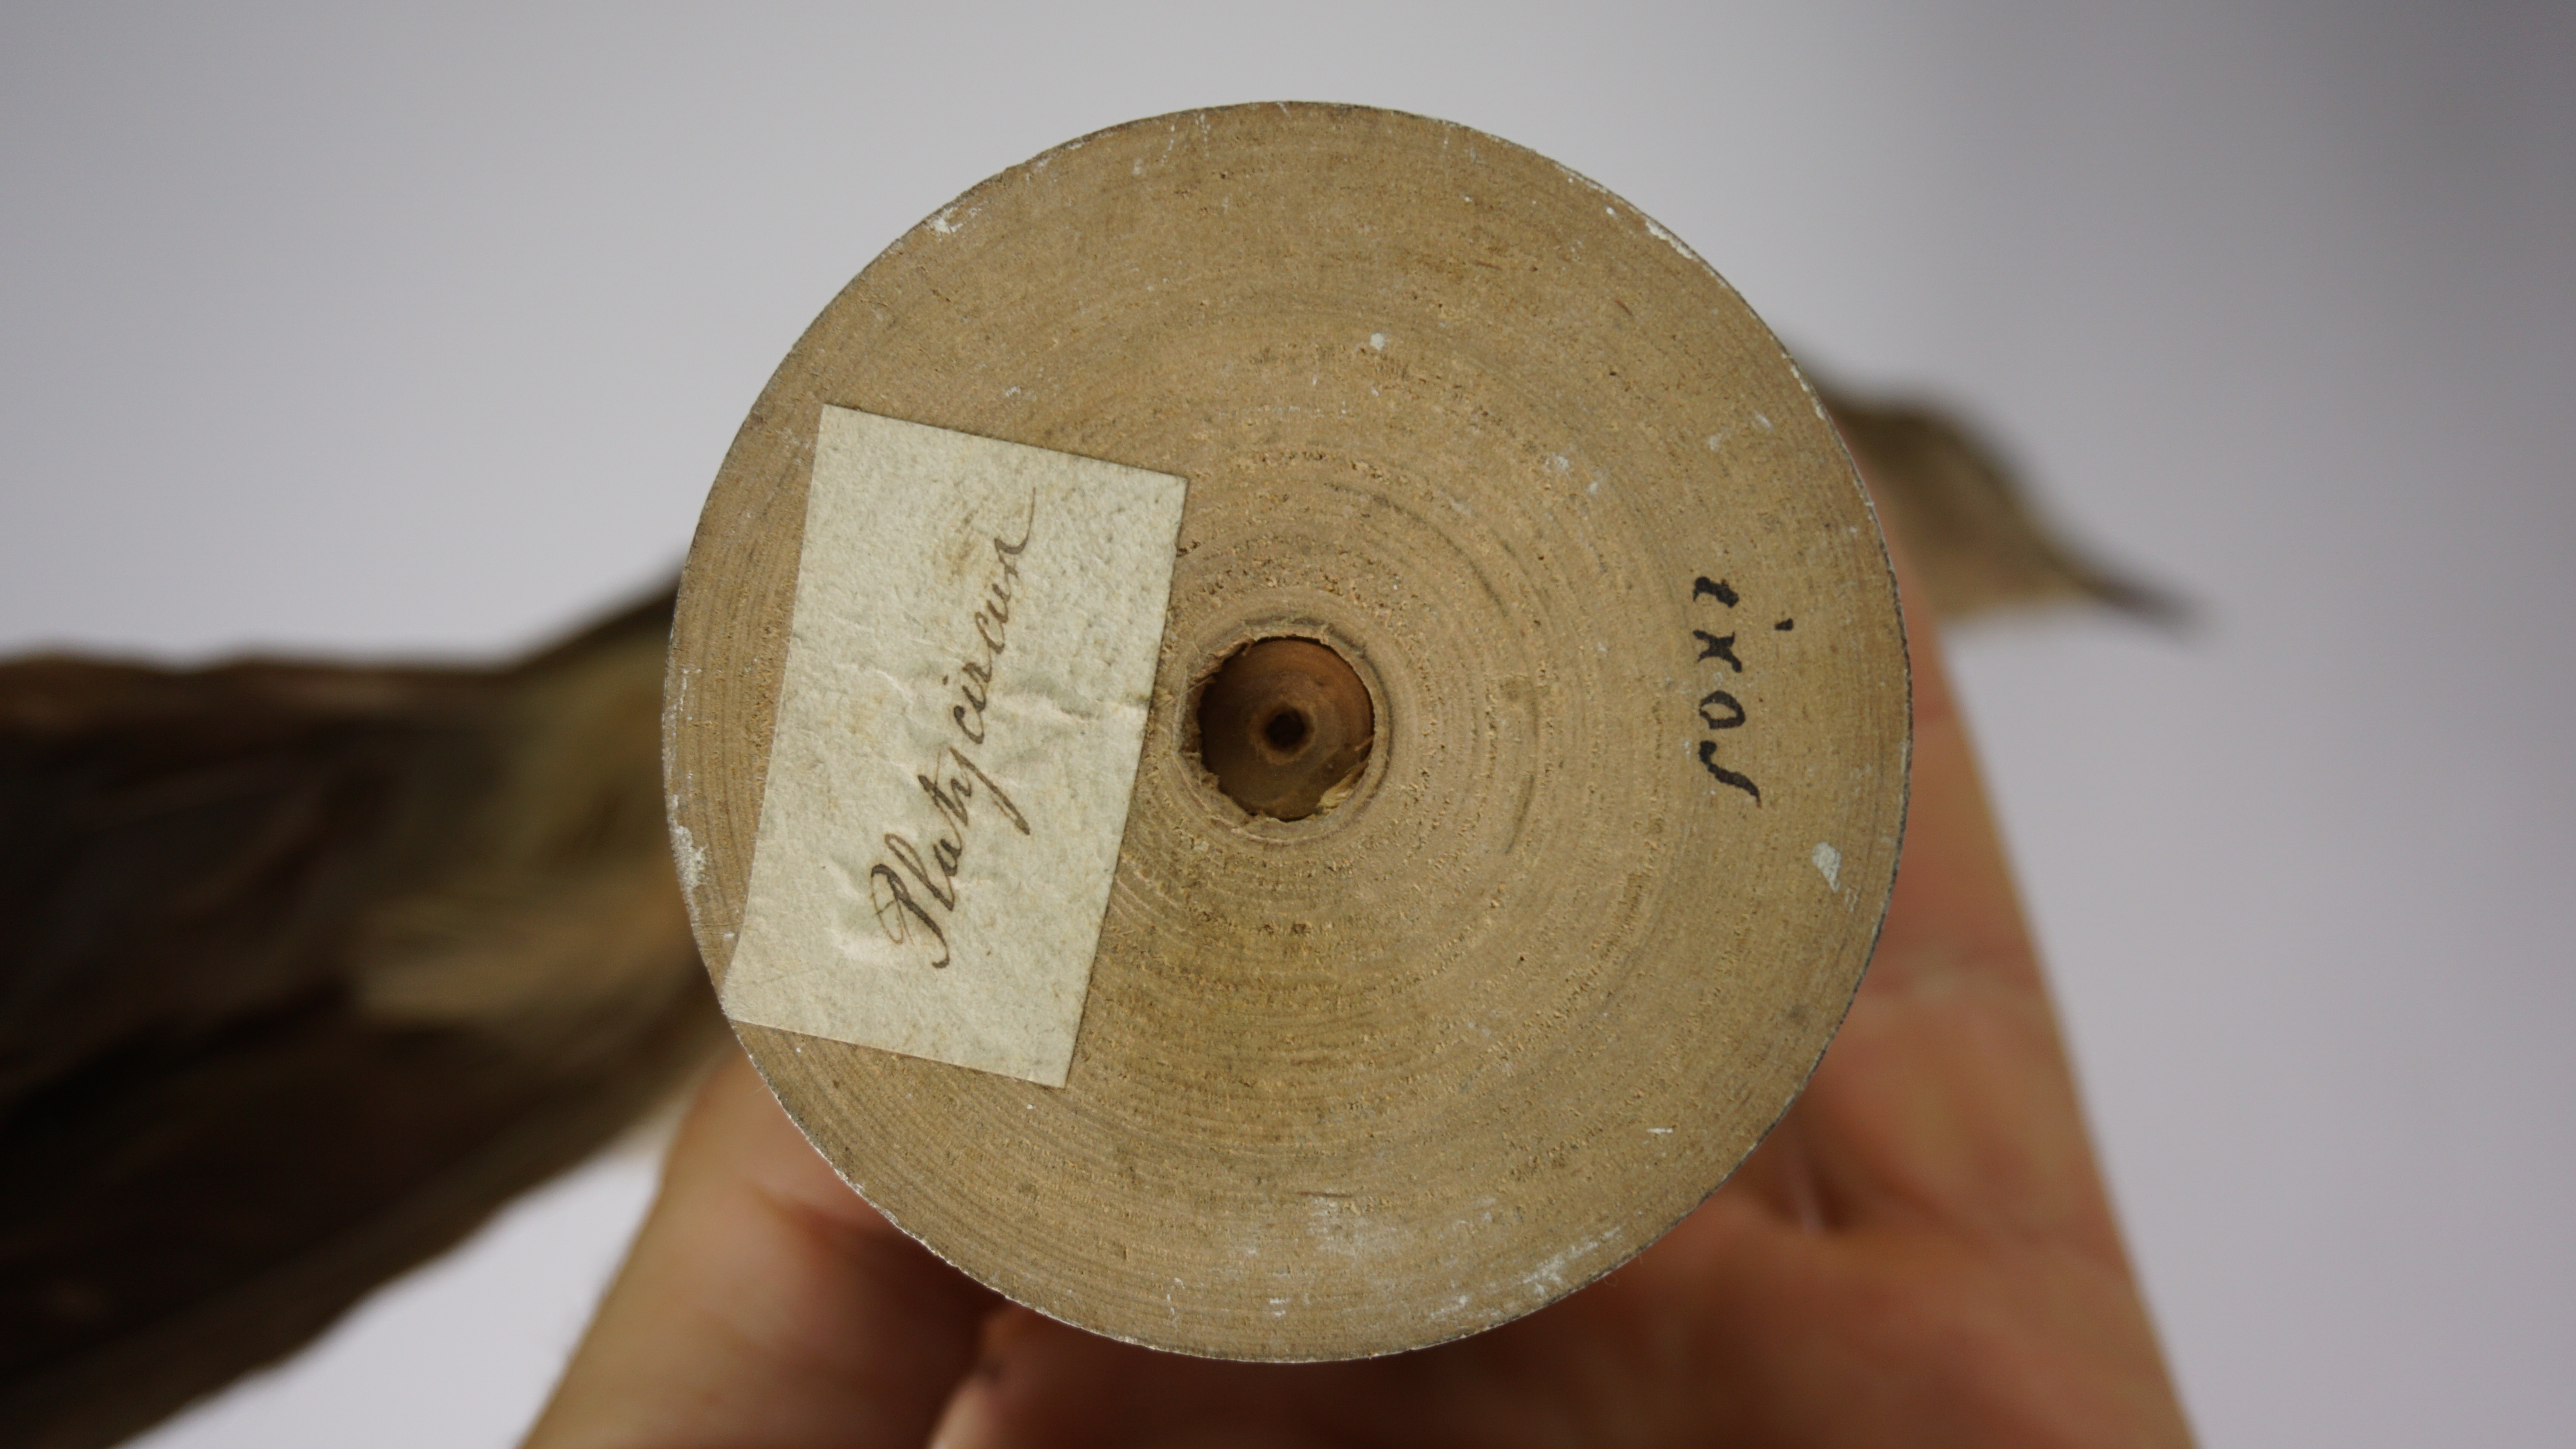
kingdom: Animalia
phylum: Chordata
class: Aves
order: Passeriformes
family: Leiothrichidae
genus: Turdoides
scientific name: Turdoides plebejus
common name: Brown babbler
